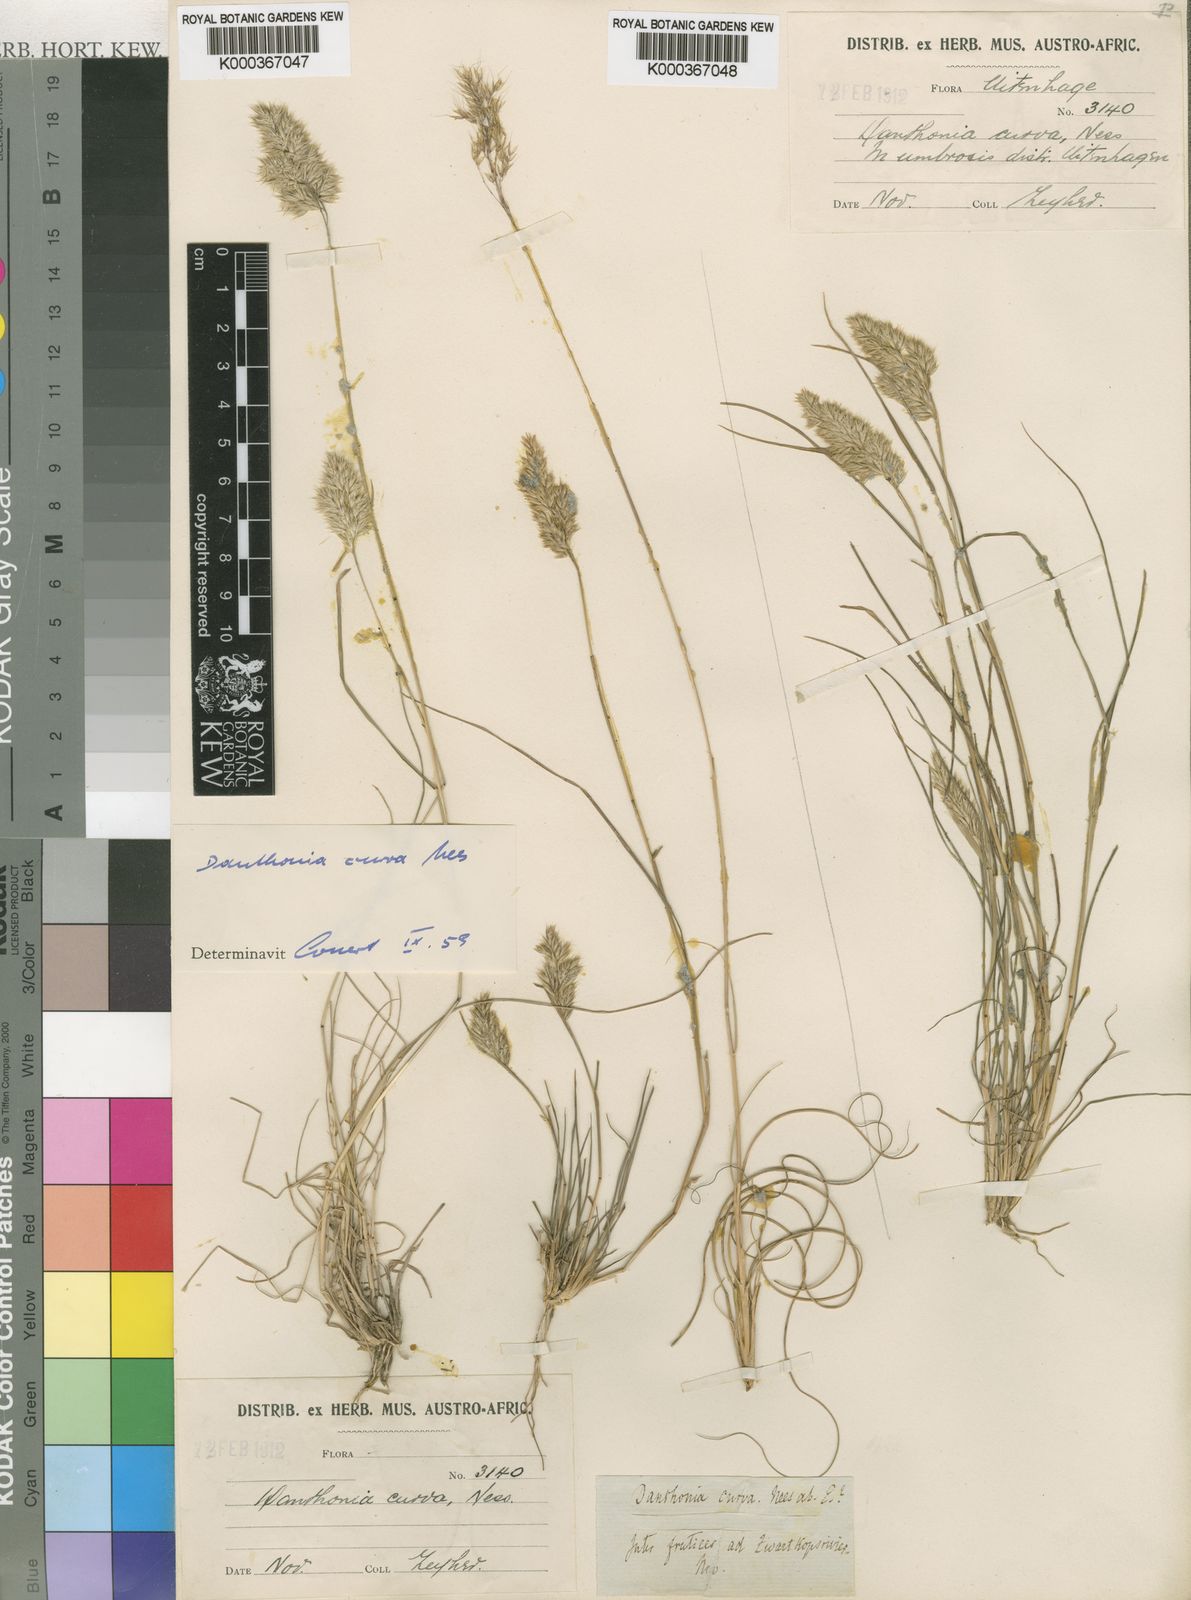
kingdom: Plantae
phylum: Tracheophyta
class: Liliopsida
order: Poales
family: Poaceae
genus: Rytidosperma
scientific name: Rytidosperma
